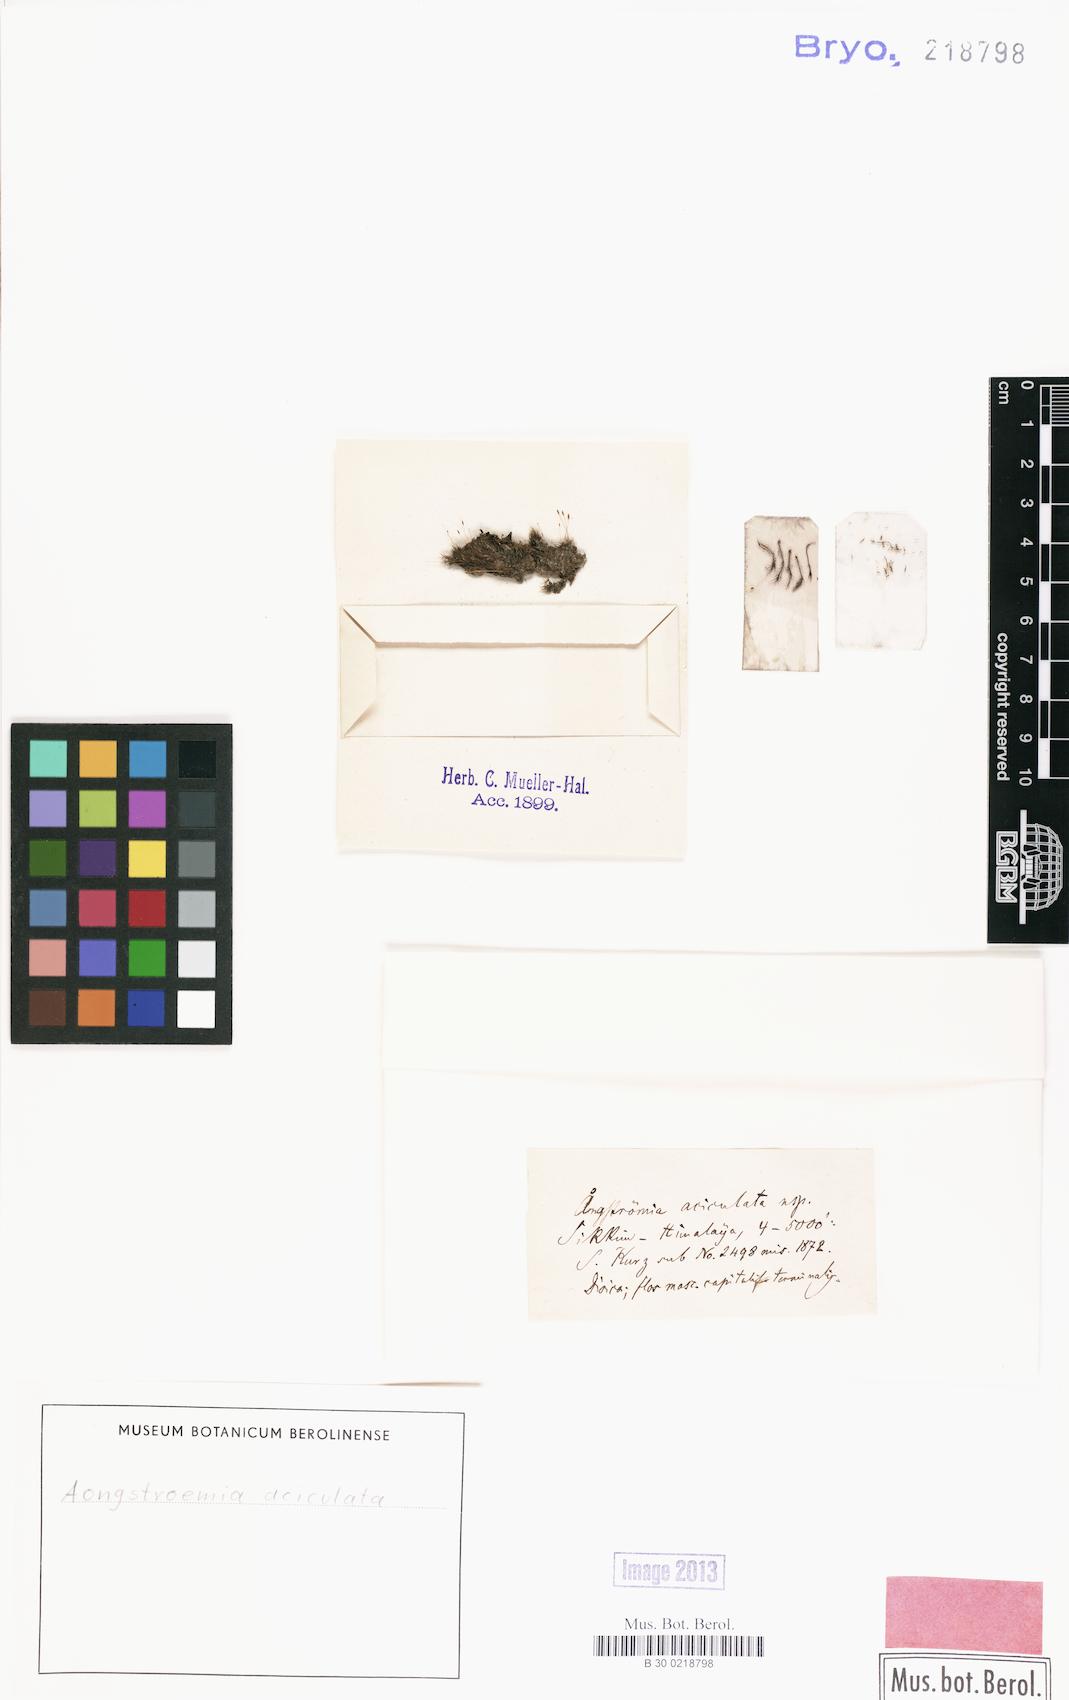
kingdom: Plantae
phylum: Bryophyta
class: Bryopsida
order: Dicranales
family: Aongstroemiaceae
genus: Aongstroemia
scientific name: Aongstroemia
